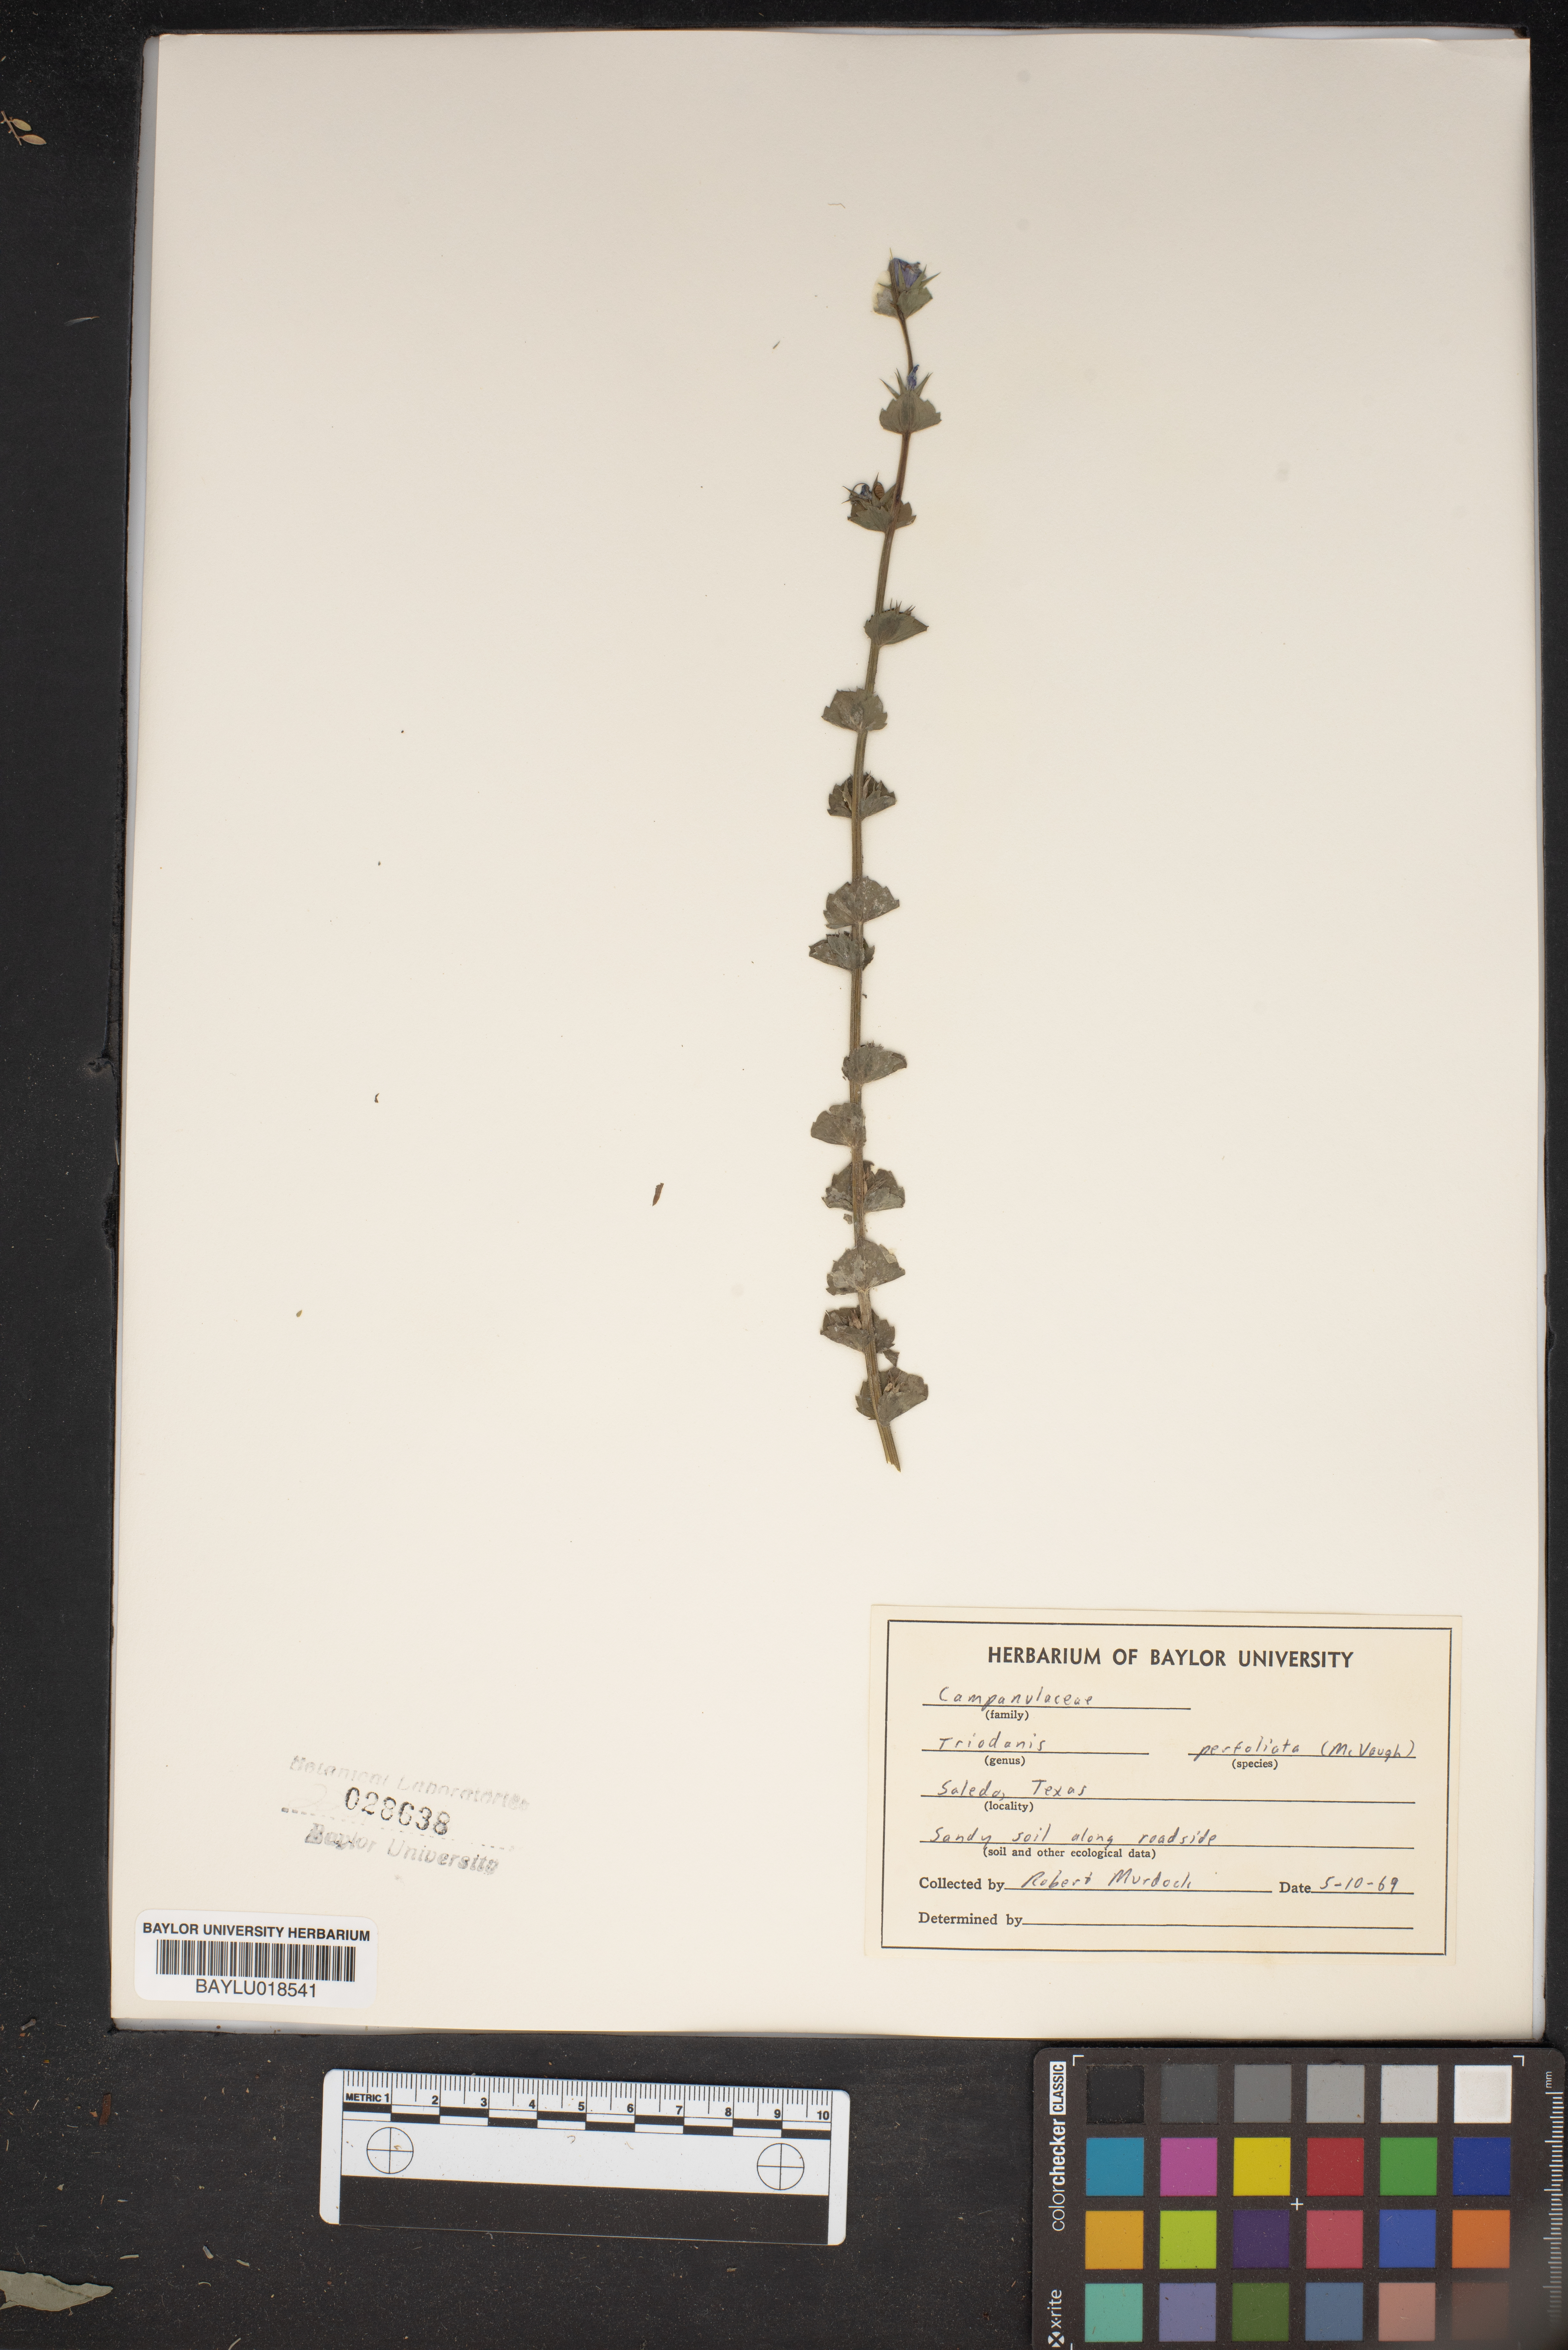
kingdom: Plantae
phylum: Tracheophyta
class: Magnoliopsida
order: Asterales
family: Campanulaceae
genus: Triodanis
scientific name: Triodanis perfoliata
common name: Clasping venus' looking-glass
